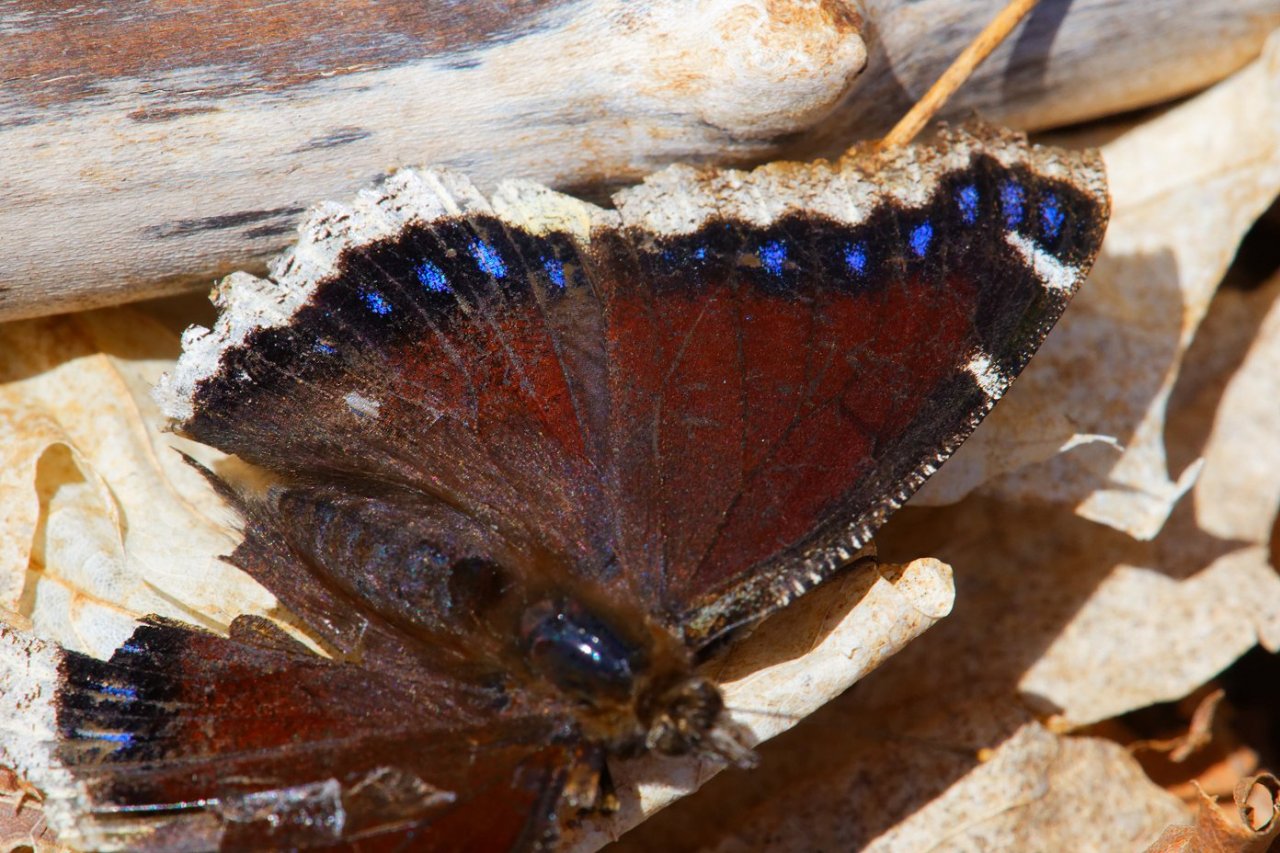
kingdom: Animalia
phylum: Arthropoda
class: Insecta
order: Lepidoptera
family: Nymphalidae
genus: Nymphalis
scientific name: Nymphalis antiopa
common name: Mourning Cloak
